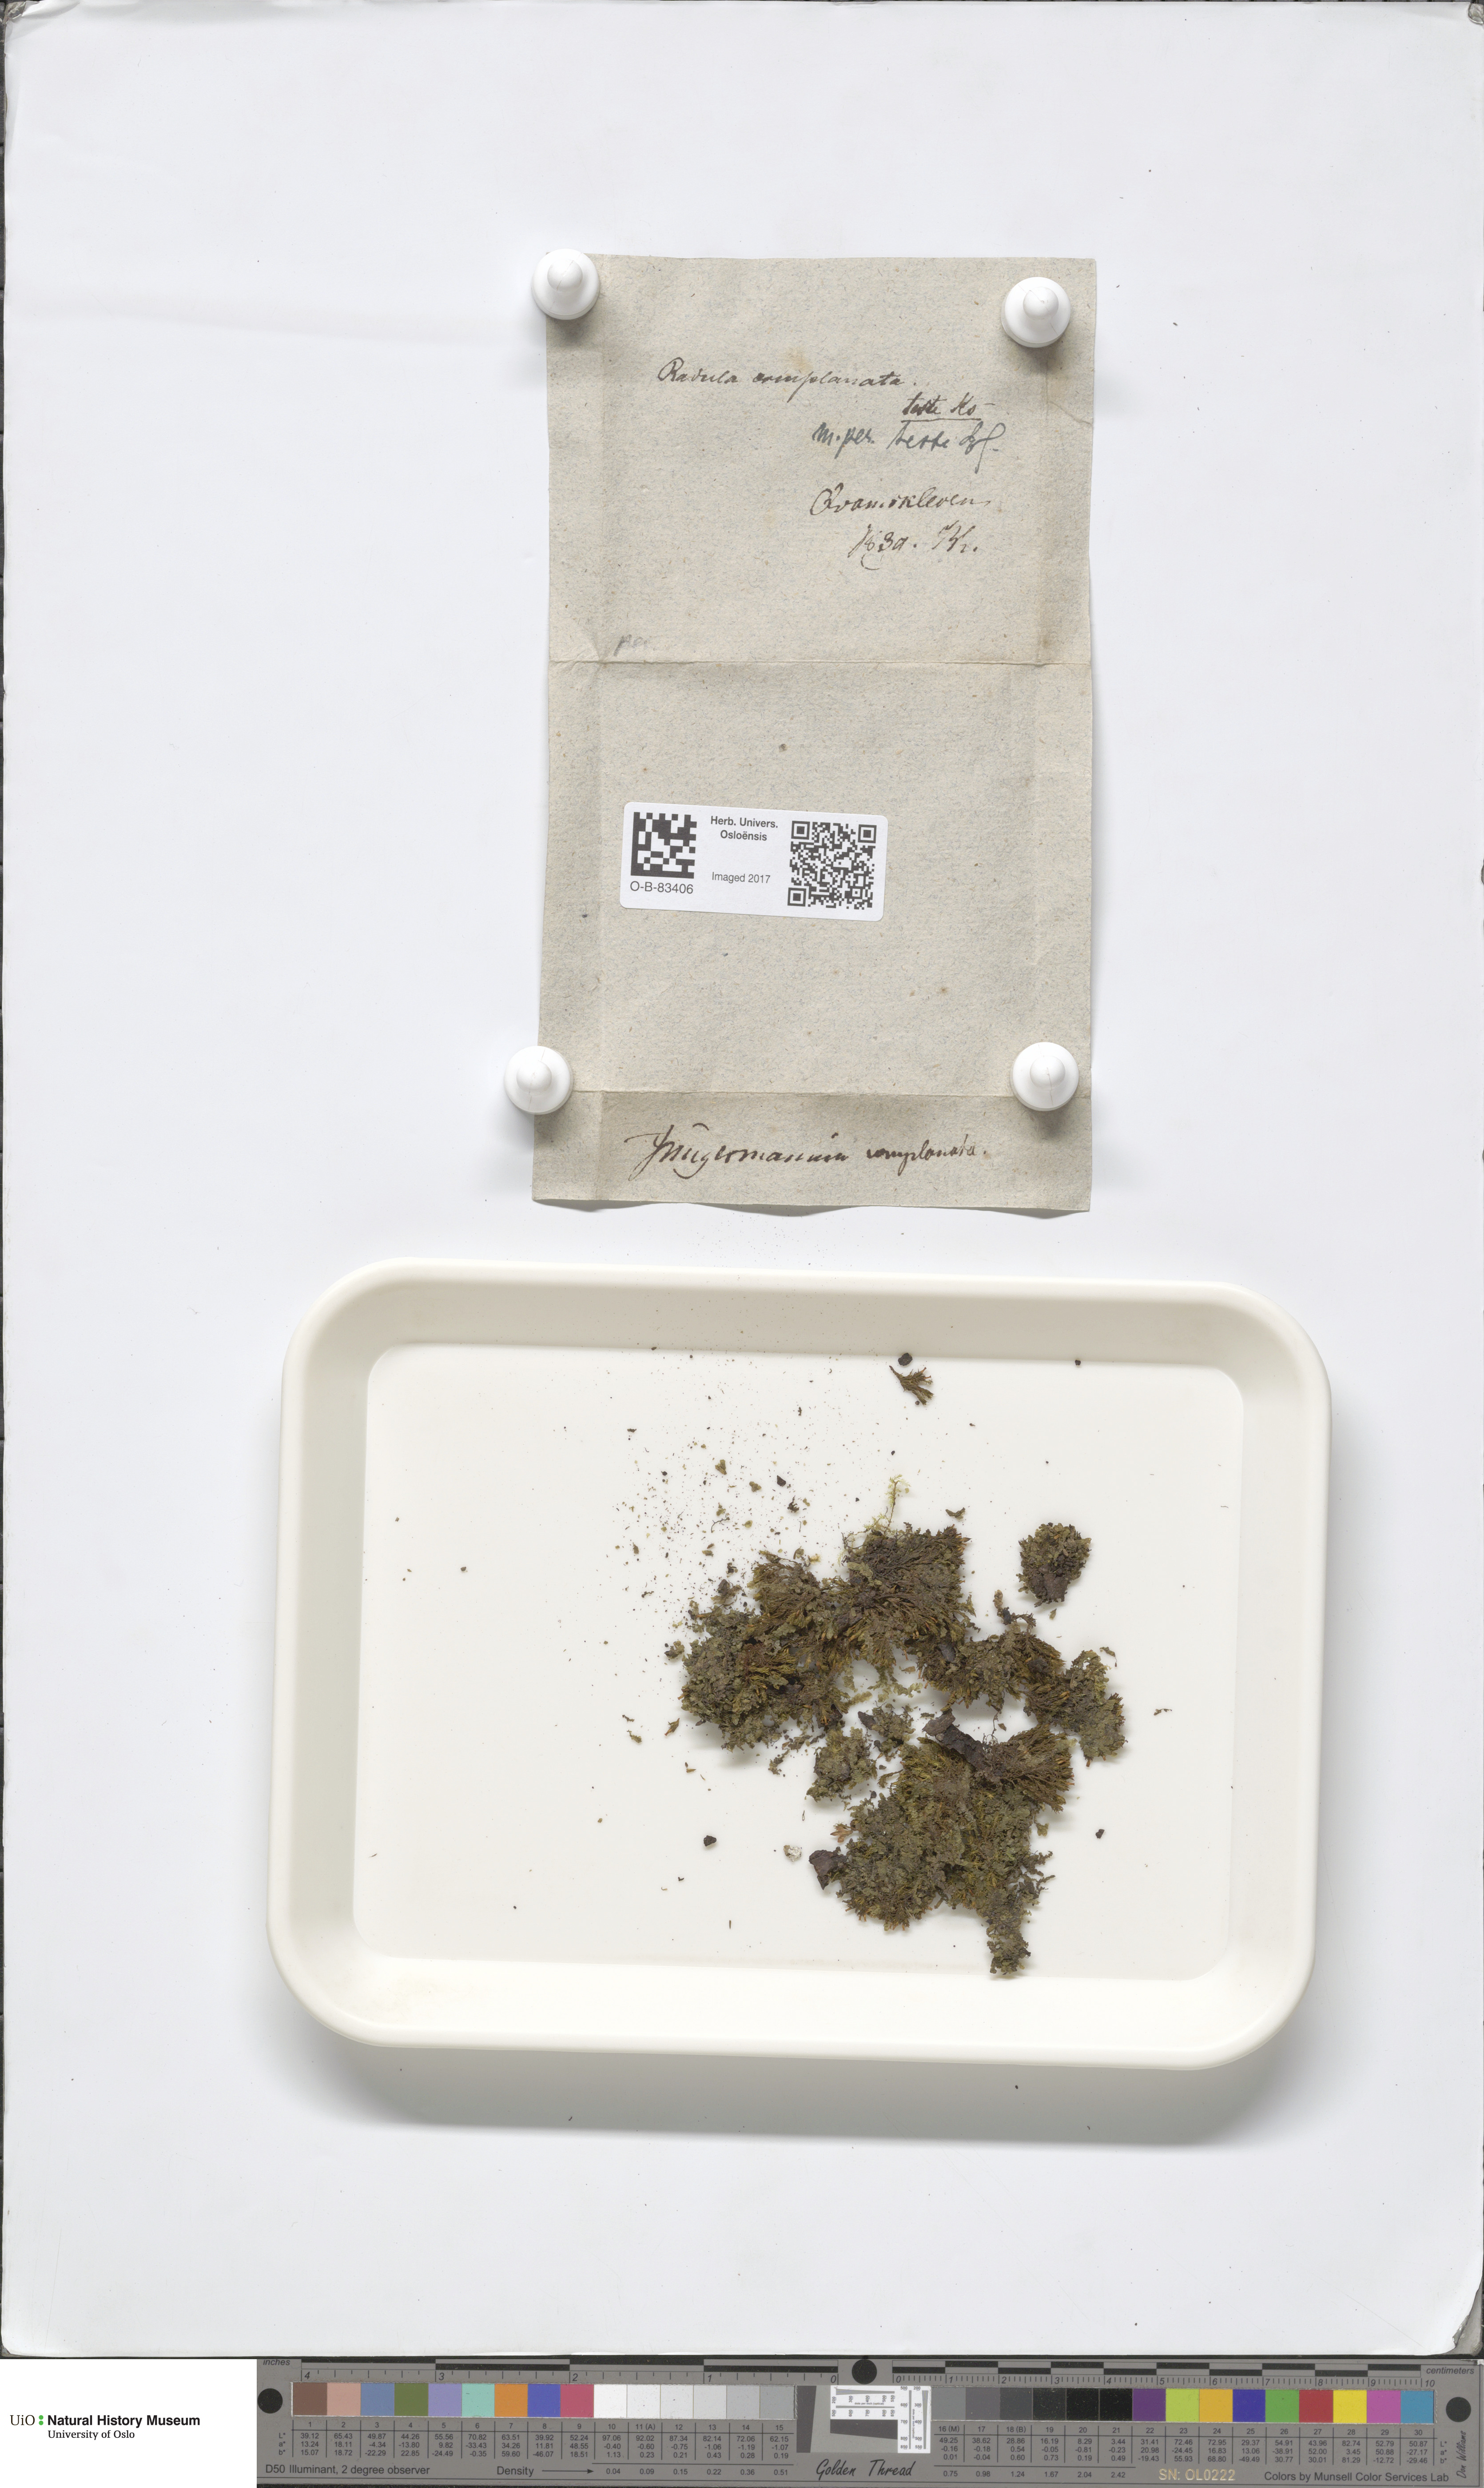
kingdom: Plantae
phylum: Marchantiophyta
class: Jungermanniopsida
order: Porellales
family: Radulaceae
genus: Radula
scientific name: Radula complanata
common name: Flat-leaved scalewort
